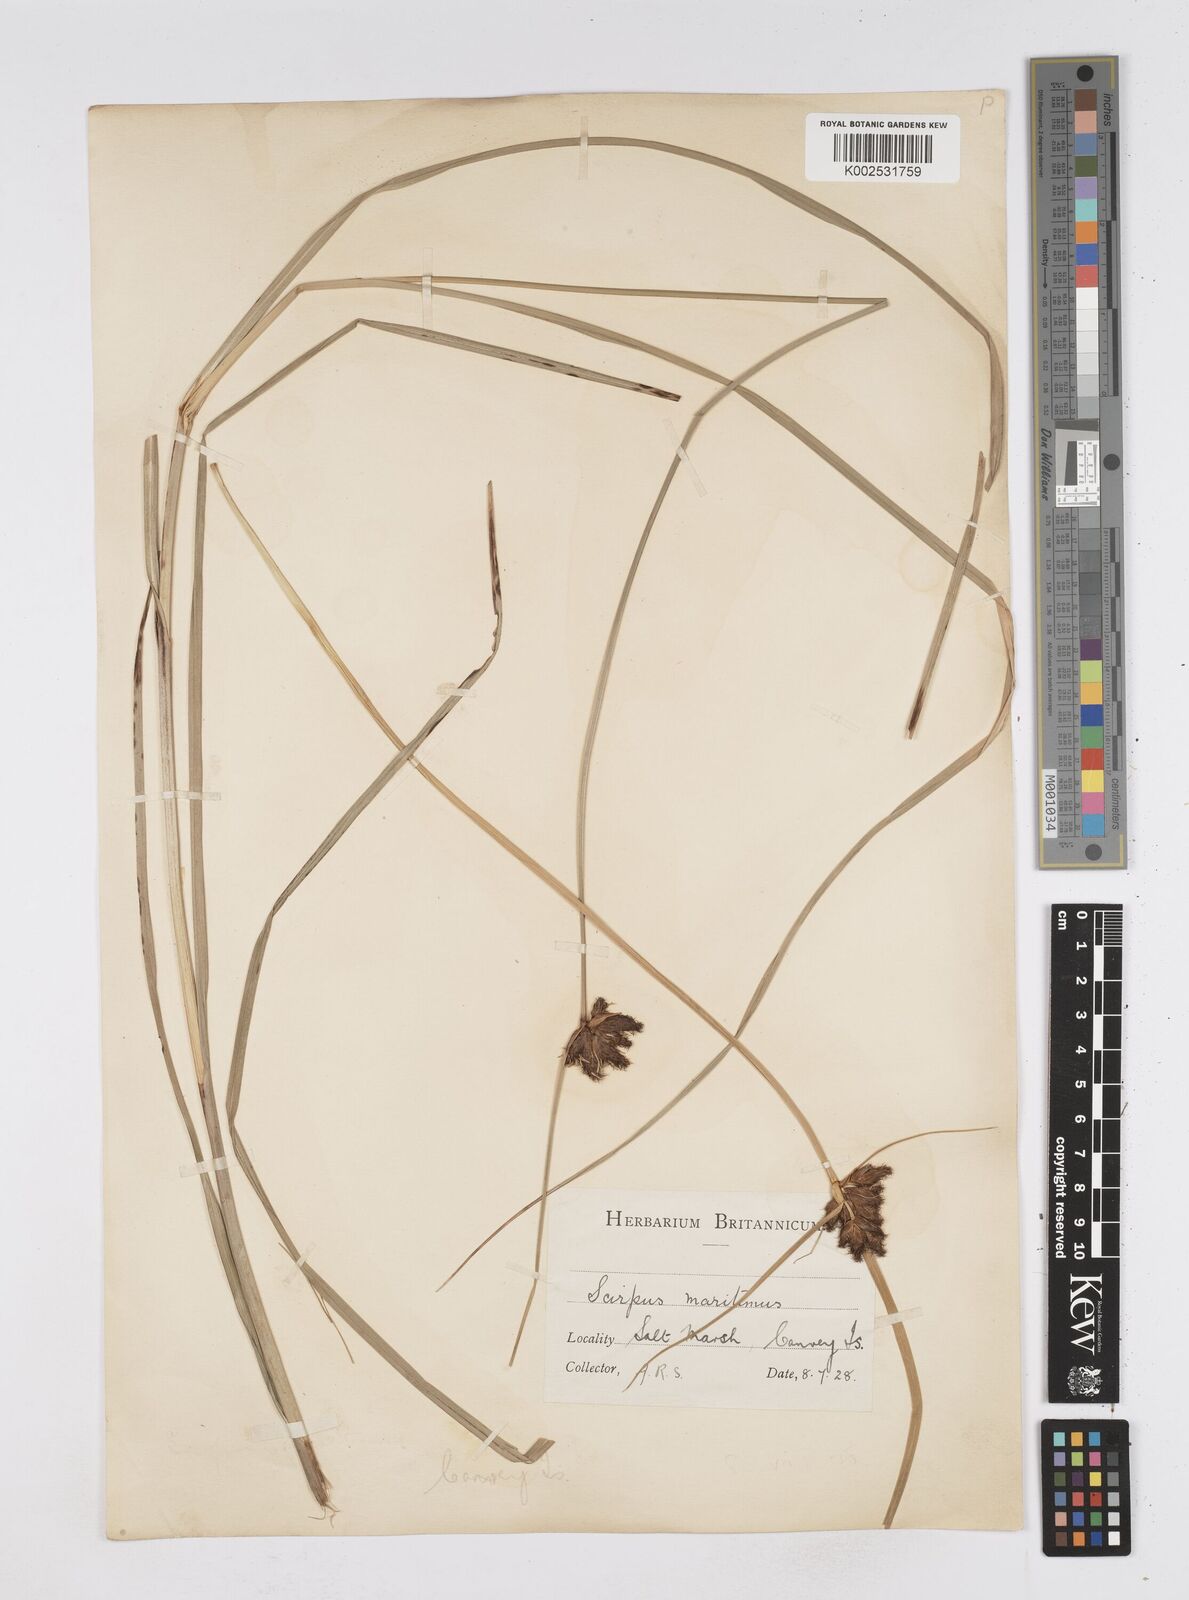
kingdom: Plantae
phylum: Tracheophyta
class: Liliopsida
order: Poales
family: Cyperaceae
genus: Bolboschoenus
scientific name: Bolboschoenus maritimus
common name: Sea club-rush
